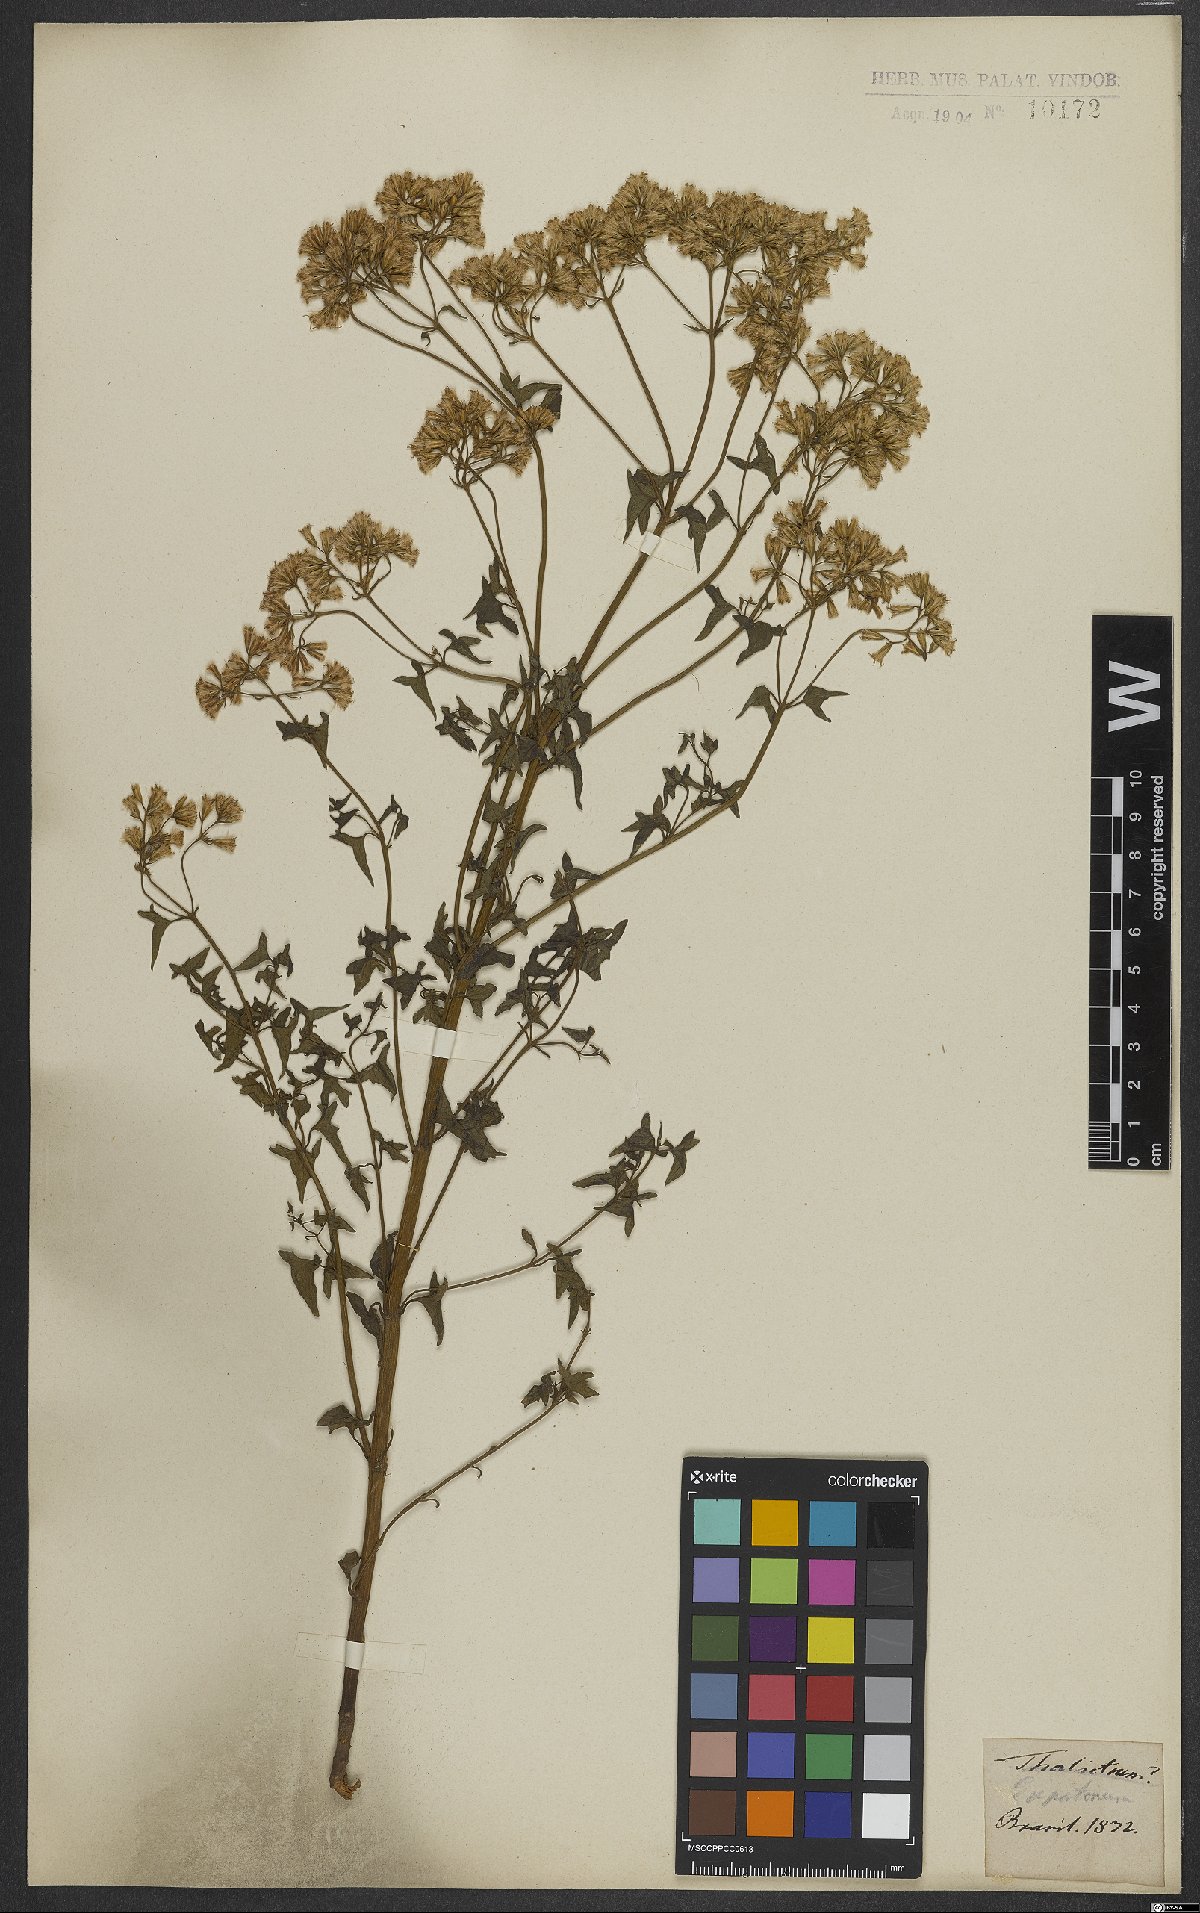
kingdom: Plantae
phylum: Tracheophyta
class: Magnoliopsida
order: Asterales
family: Asteraceae
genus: Eupatorium
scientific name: Eupatorium
